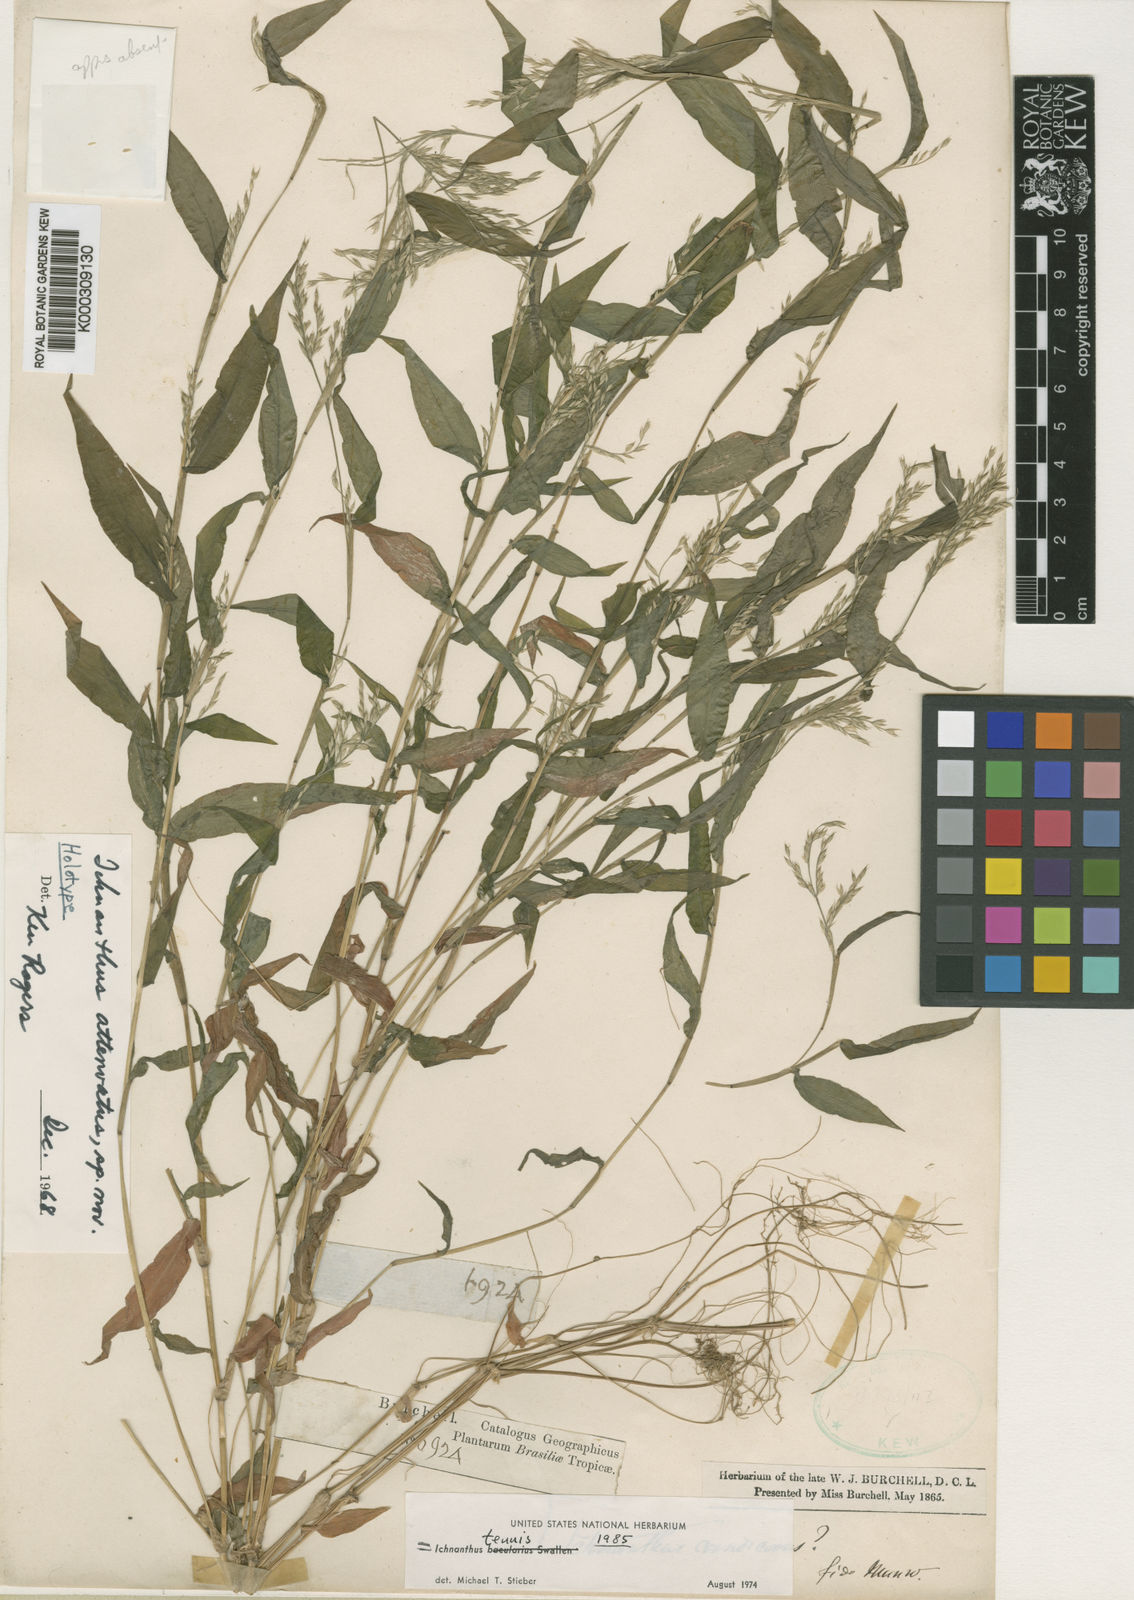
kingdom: Plantae
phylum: Tracheophyta
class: Liliopsida
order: Poales
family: Poaceae
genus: Ichnanthus
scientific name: Ichnanthus tenuis
